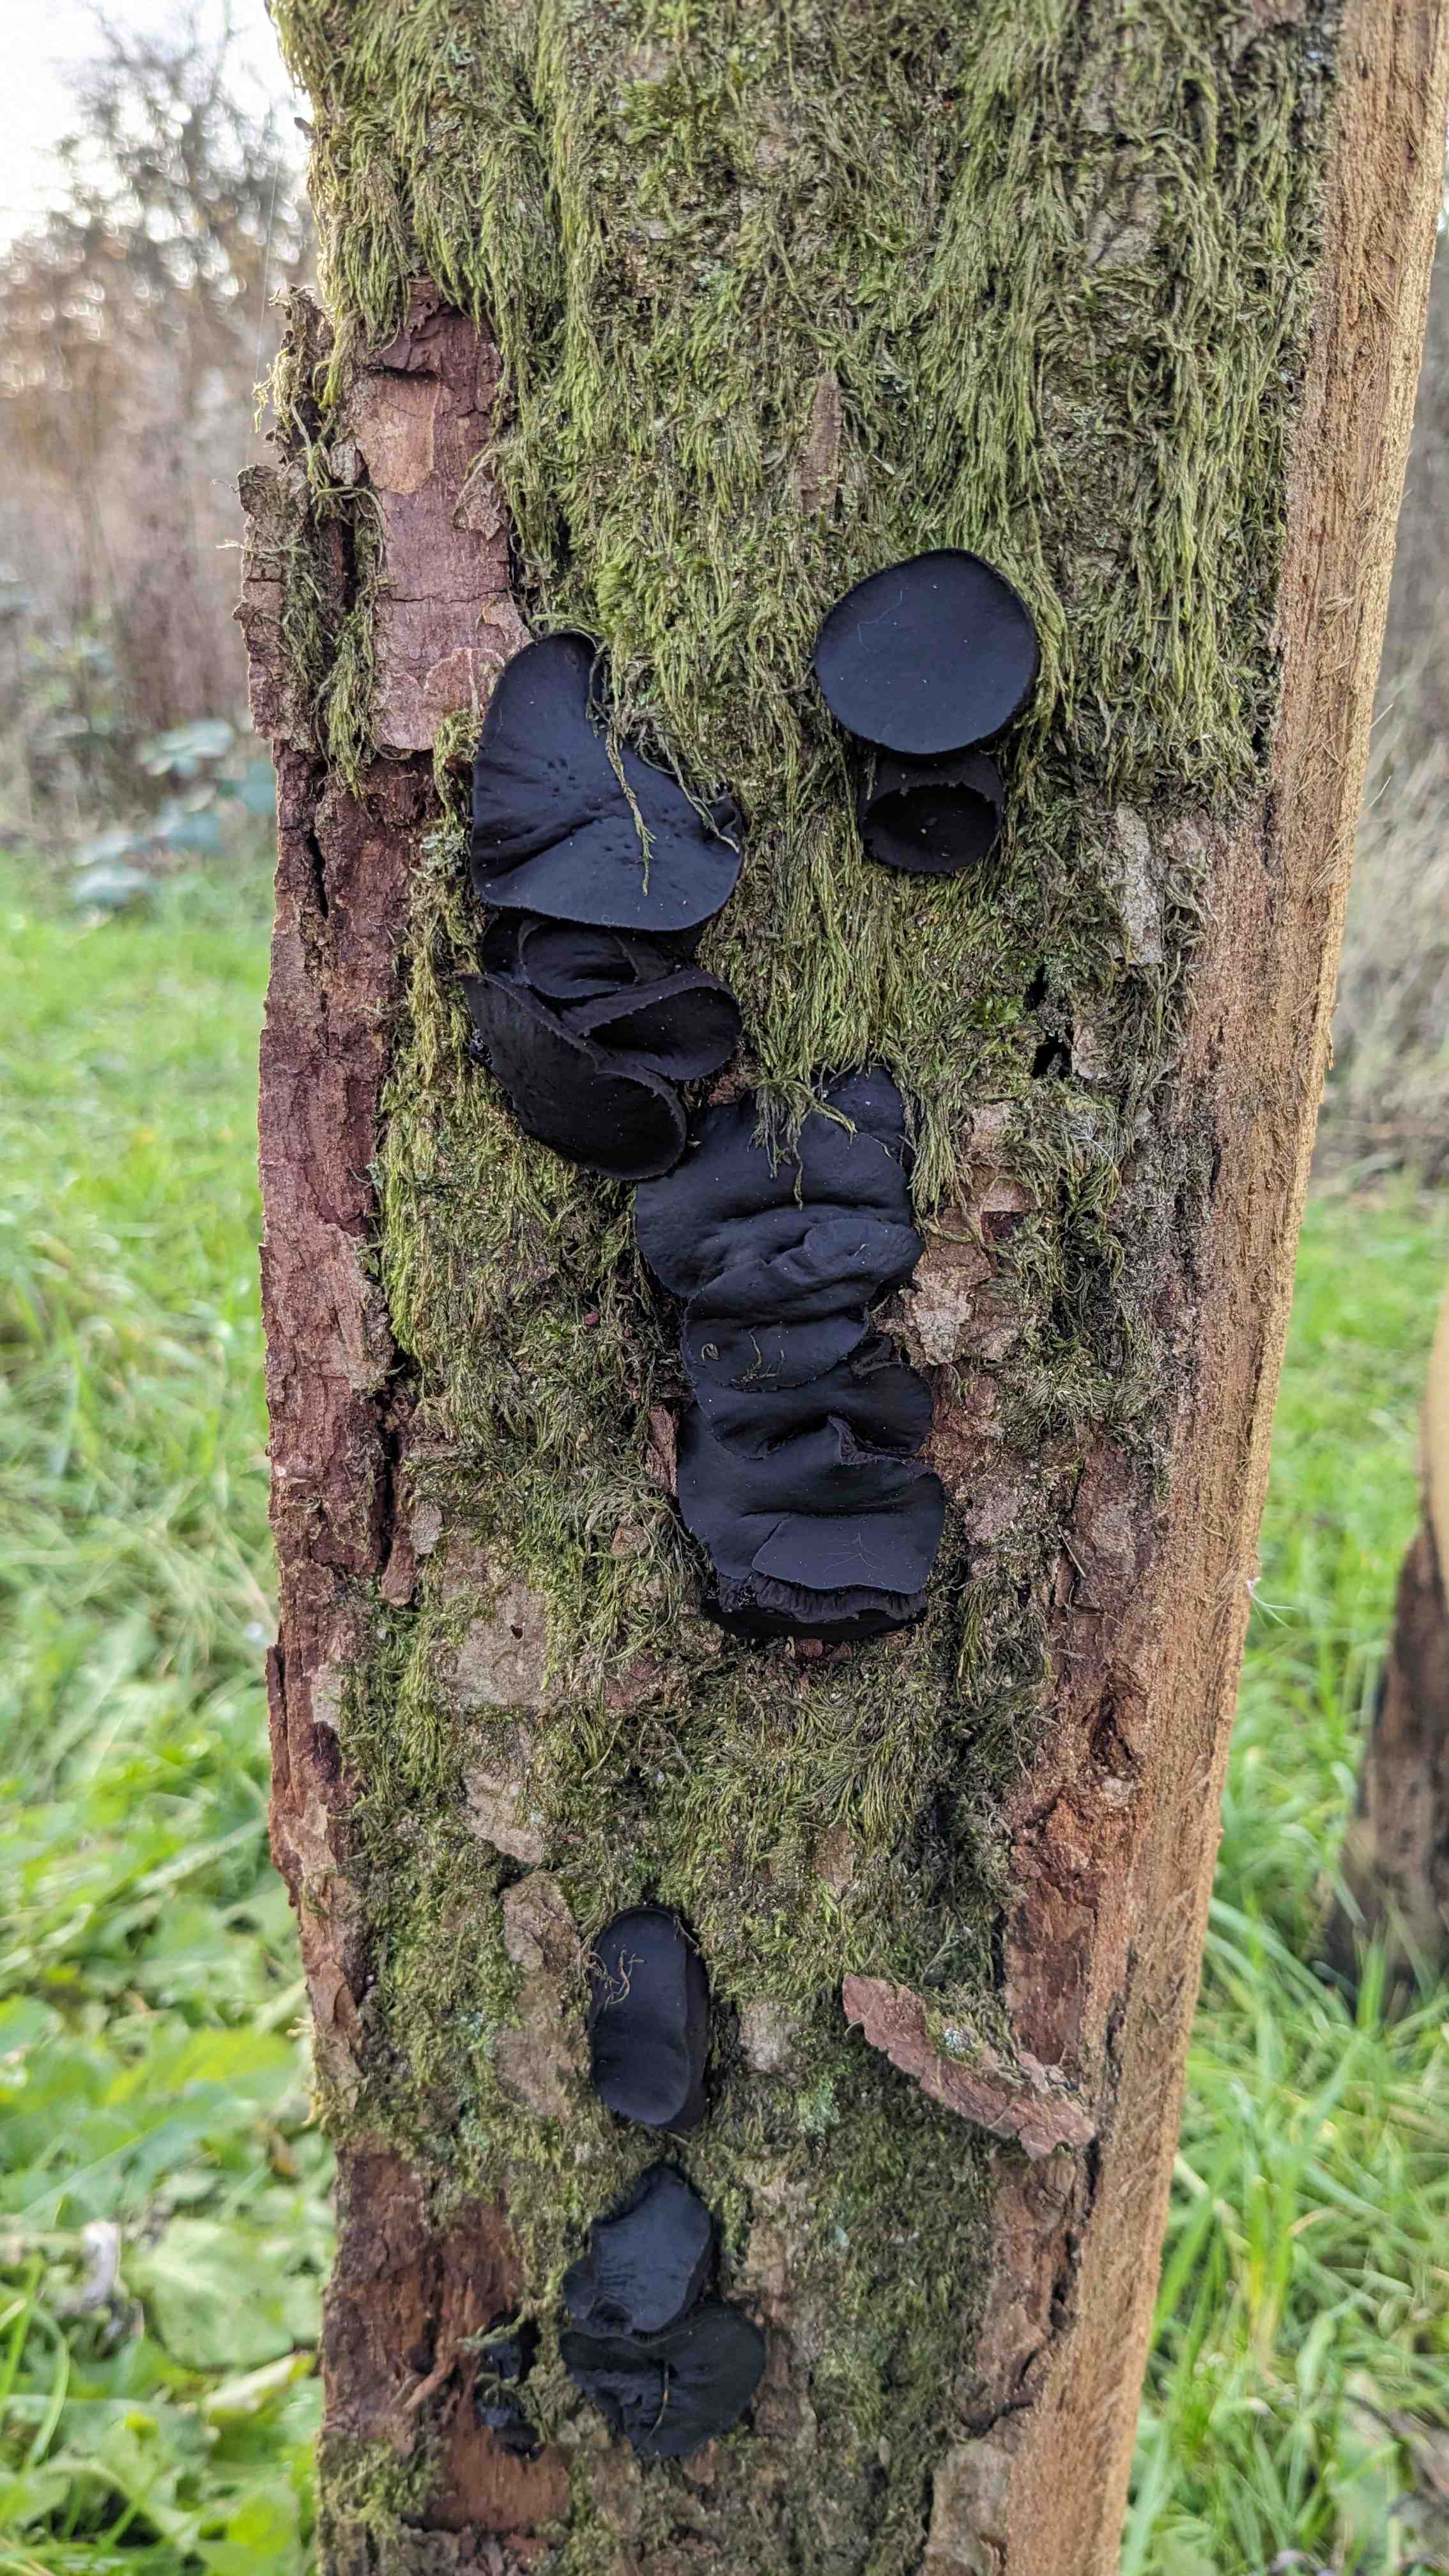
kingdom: Fungi
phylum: Ascomycota
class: Leotiomycetes
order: Phacidiales
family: Phacidiaceae
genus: Bulgaria
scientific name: Bulgaria inquinans
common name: afsmittende topsvamp
